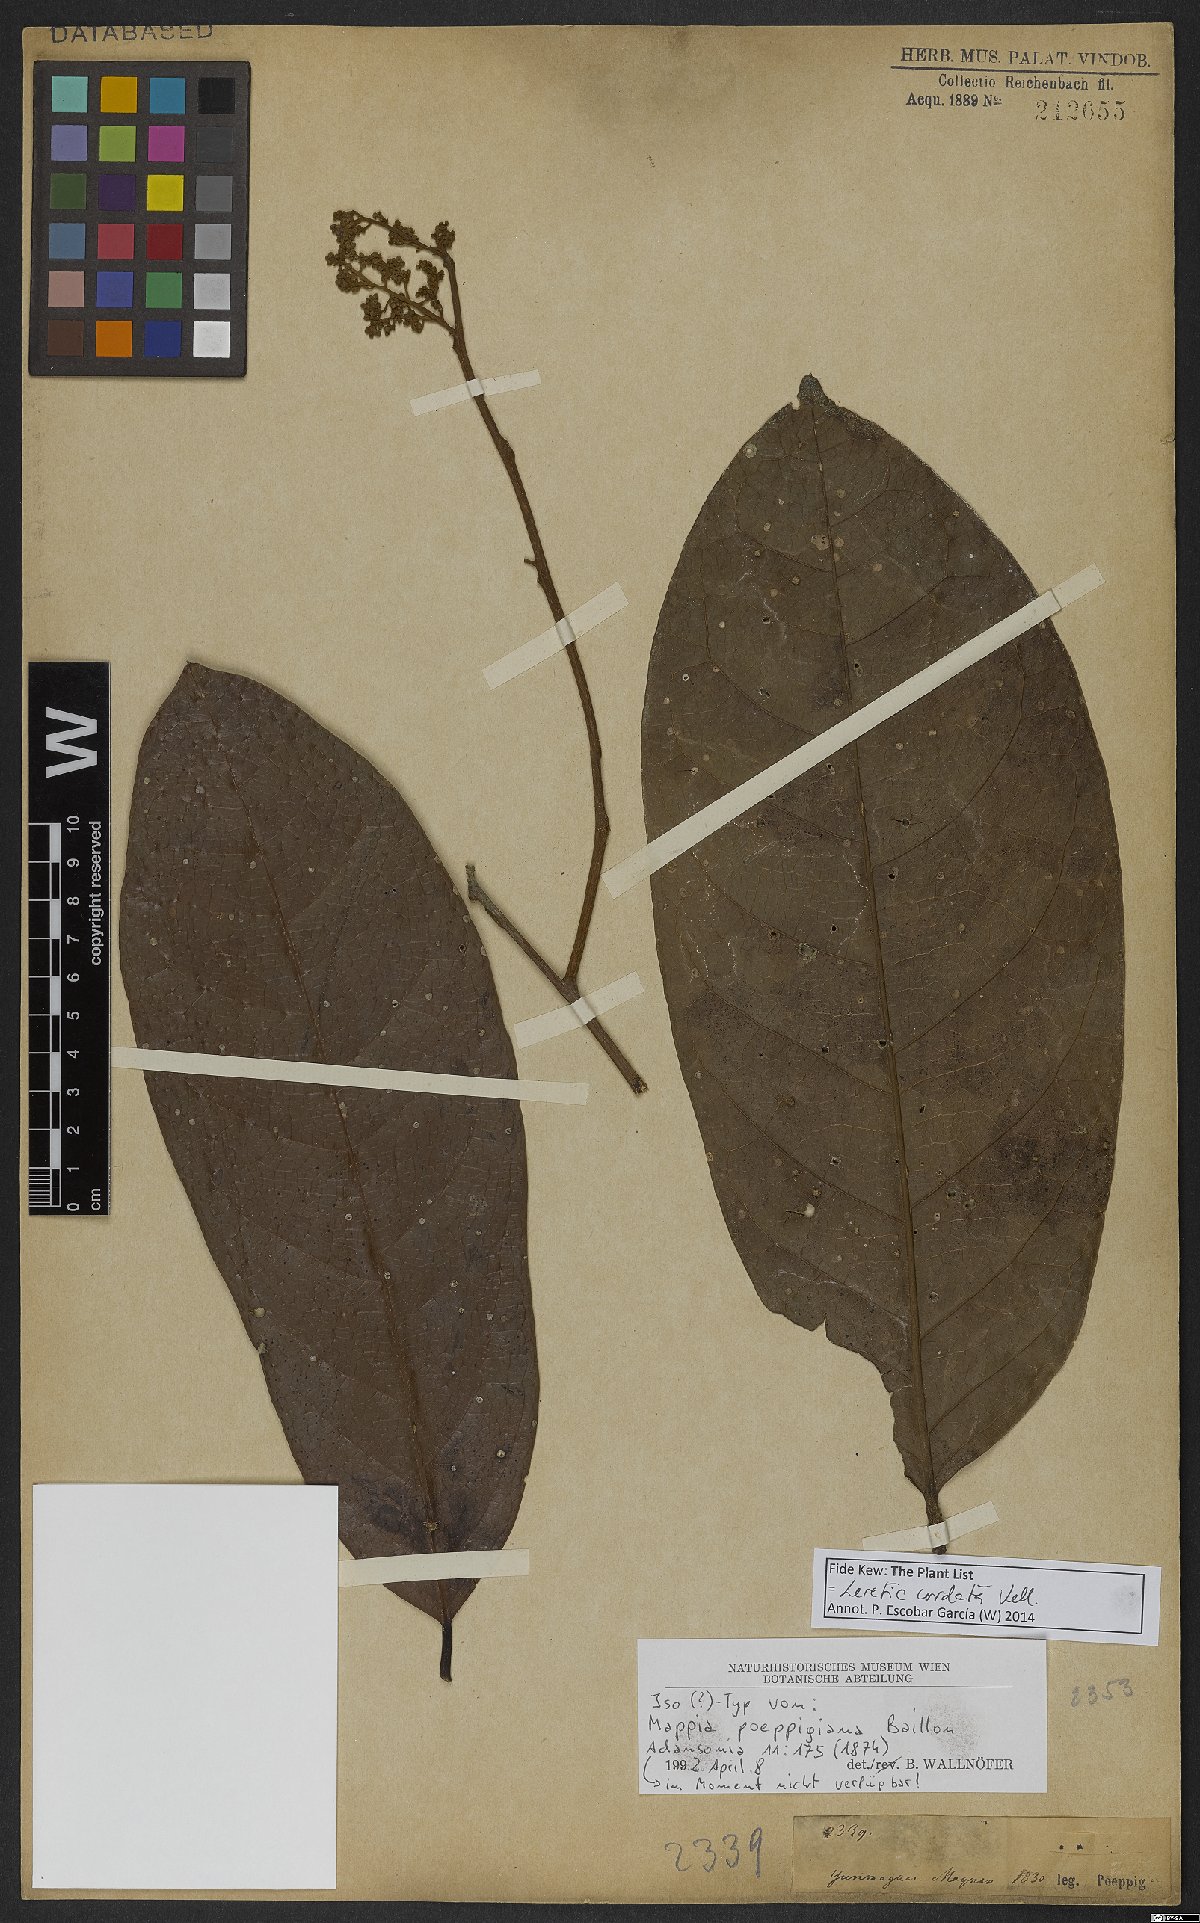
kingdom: Plantae
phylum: Tracheophyta
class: Magnoliopsida
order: Icacinales
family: Icacinaceae
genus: Leretia
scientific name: Leretia cordata
